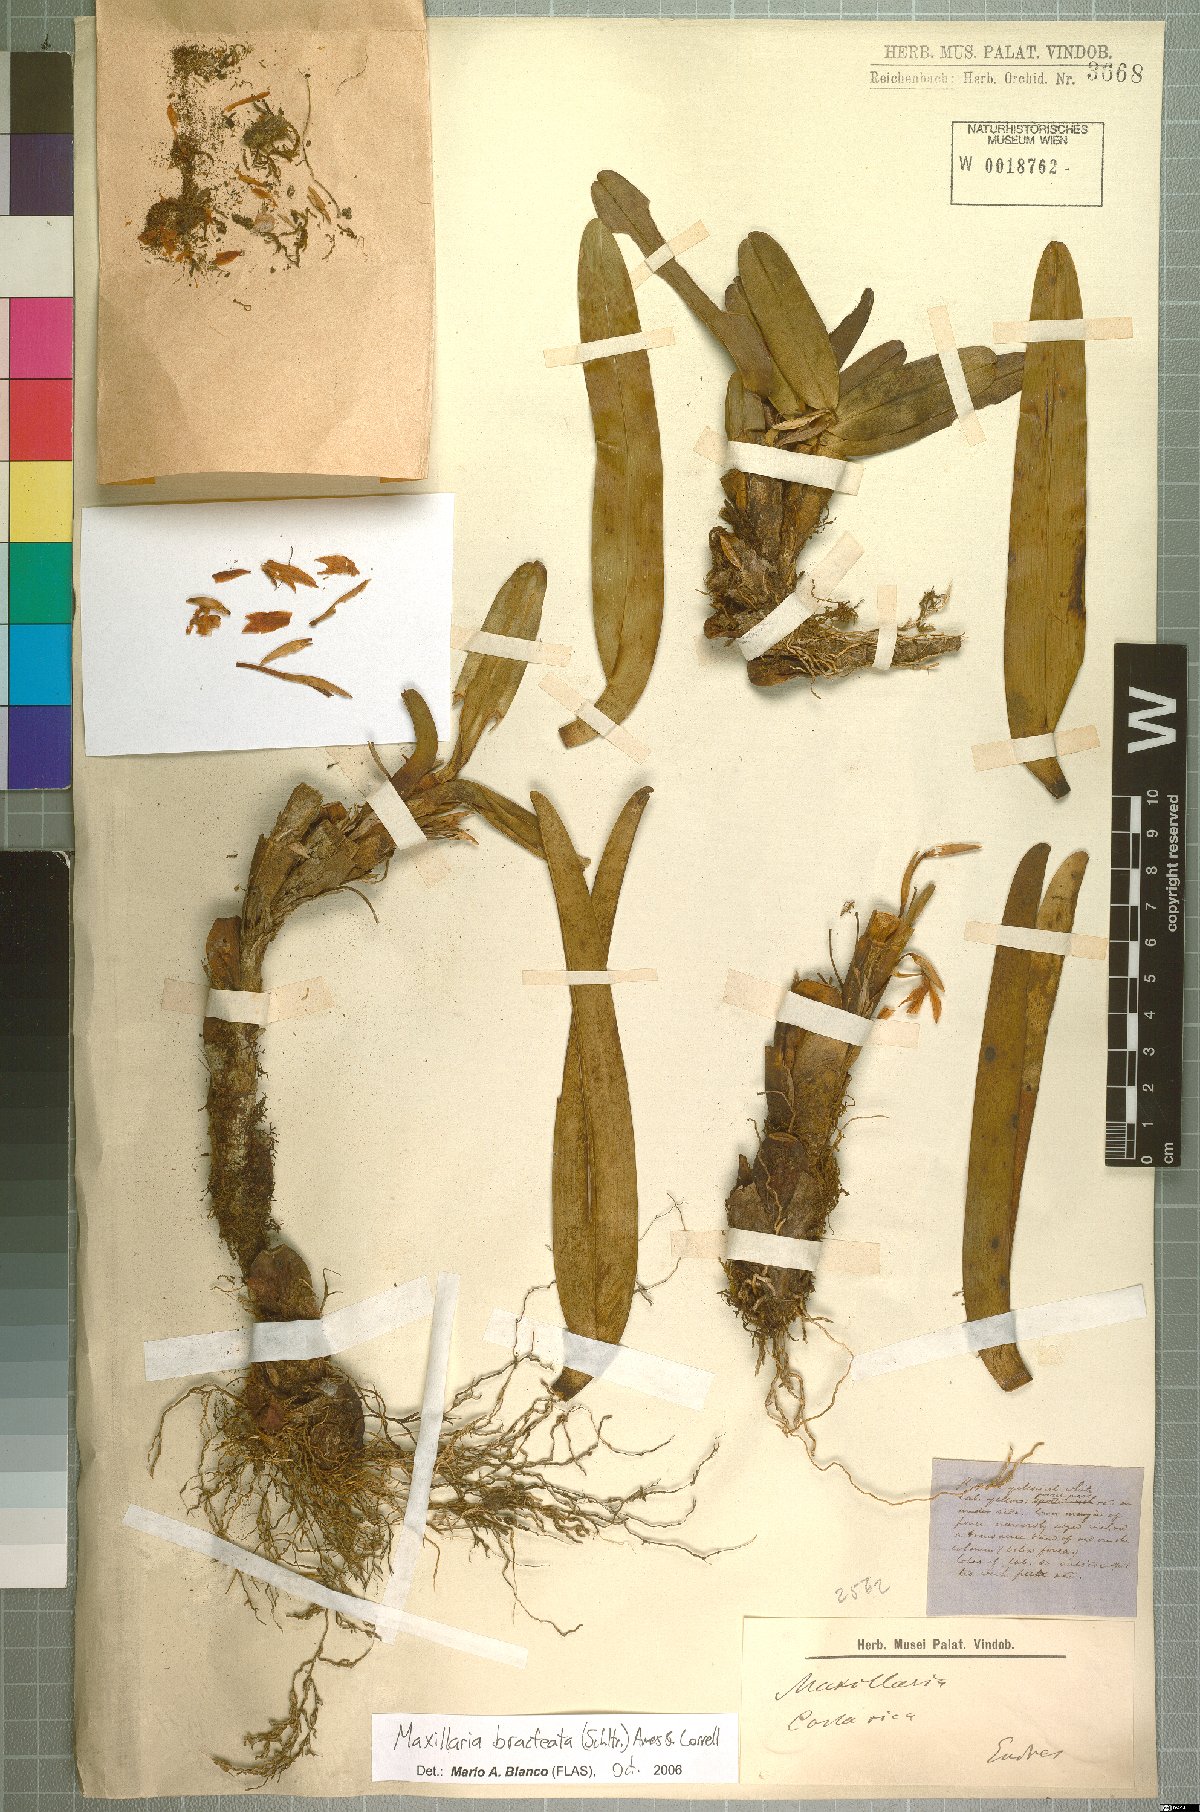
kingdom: Plantae
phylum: Tracheophyta
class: Liliopsida
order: Asparagales
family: Orchidaceae
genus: Maxillaria
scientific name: Maxillaria bracteata
